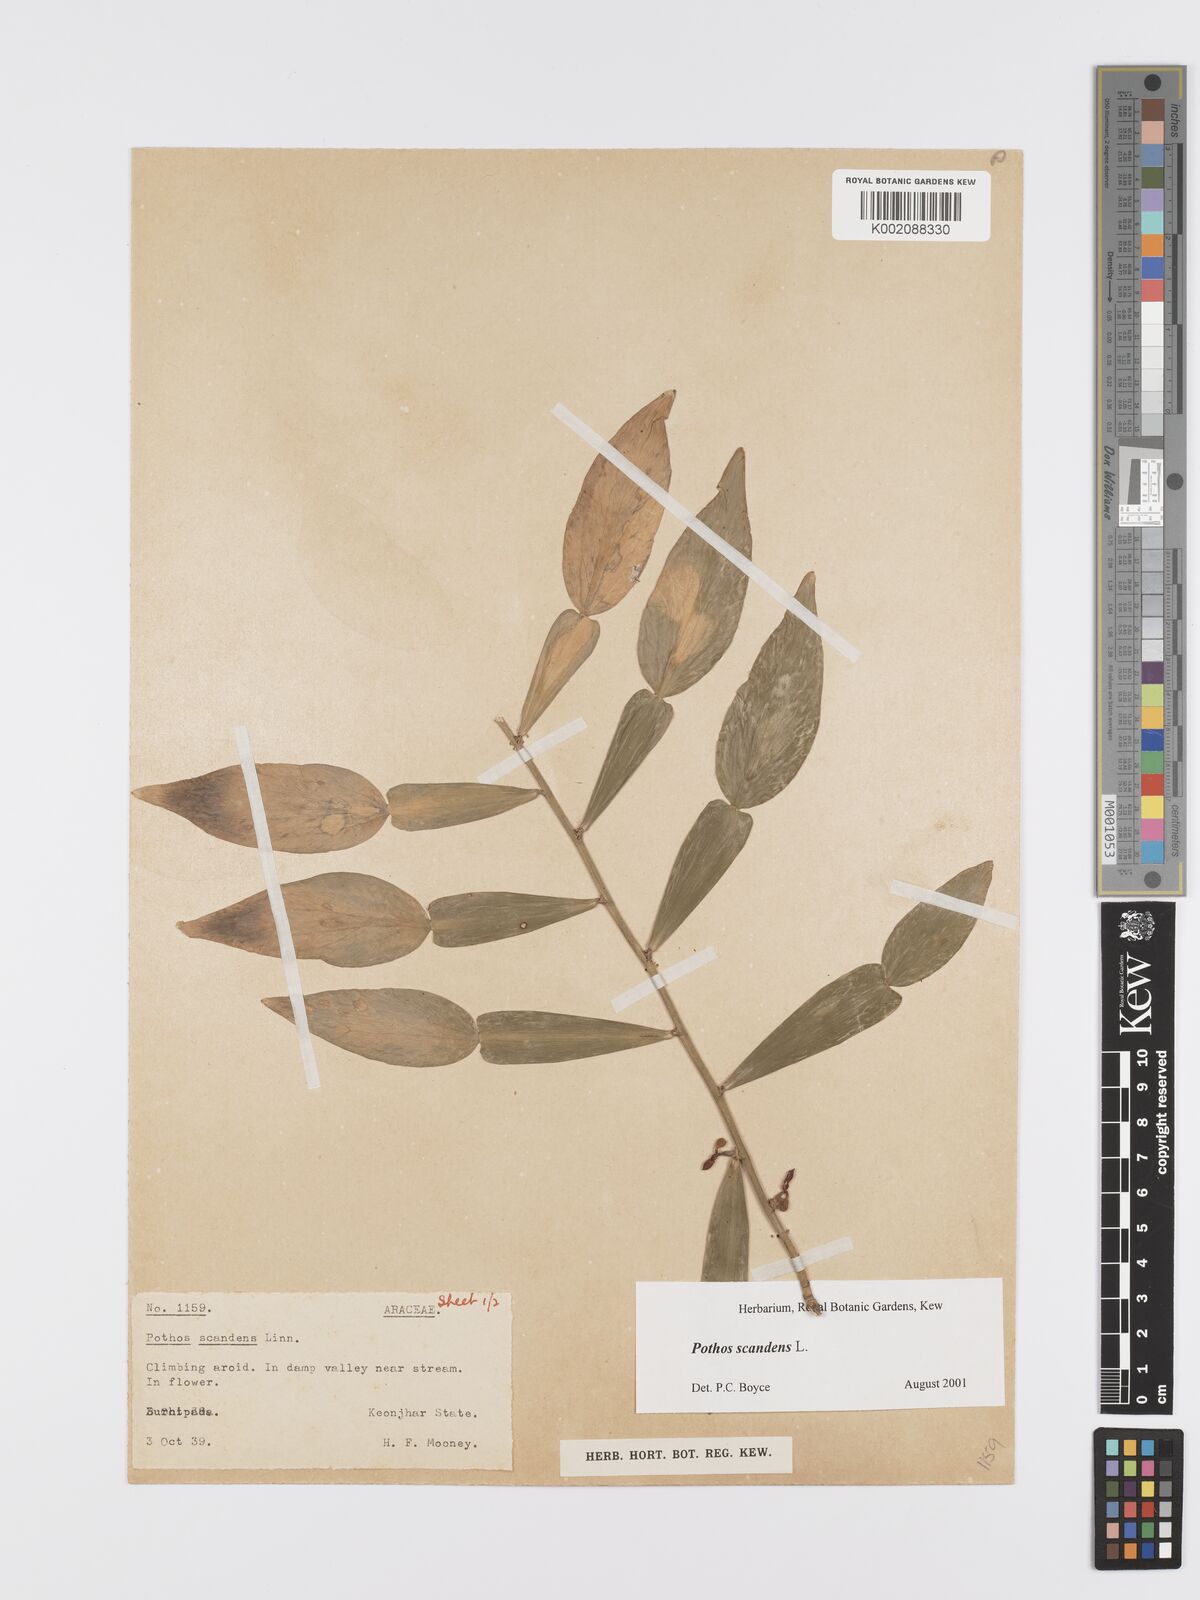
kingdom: Plantae
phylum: Tracheophyta
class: Liliopsida
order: Alismatales
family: Araceae
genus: Pothos
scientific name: Pothos scandens
